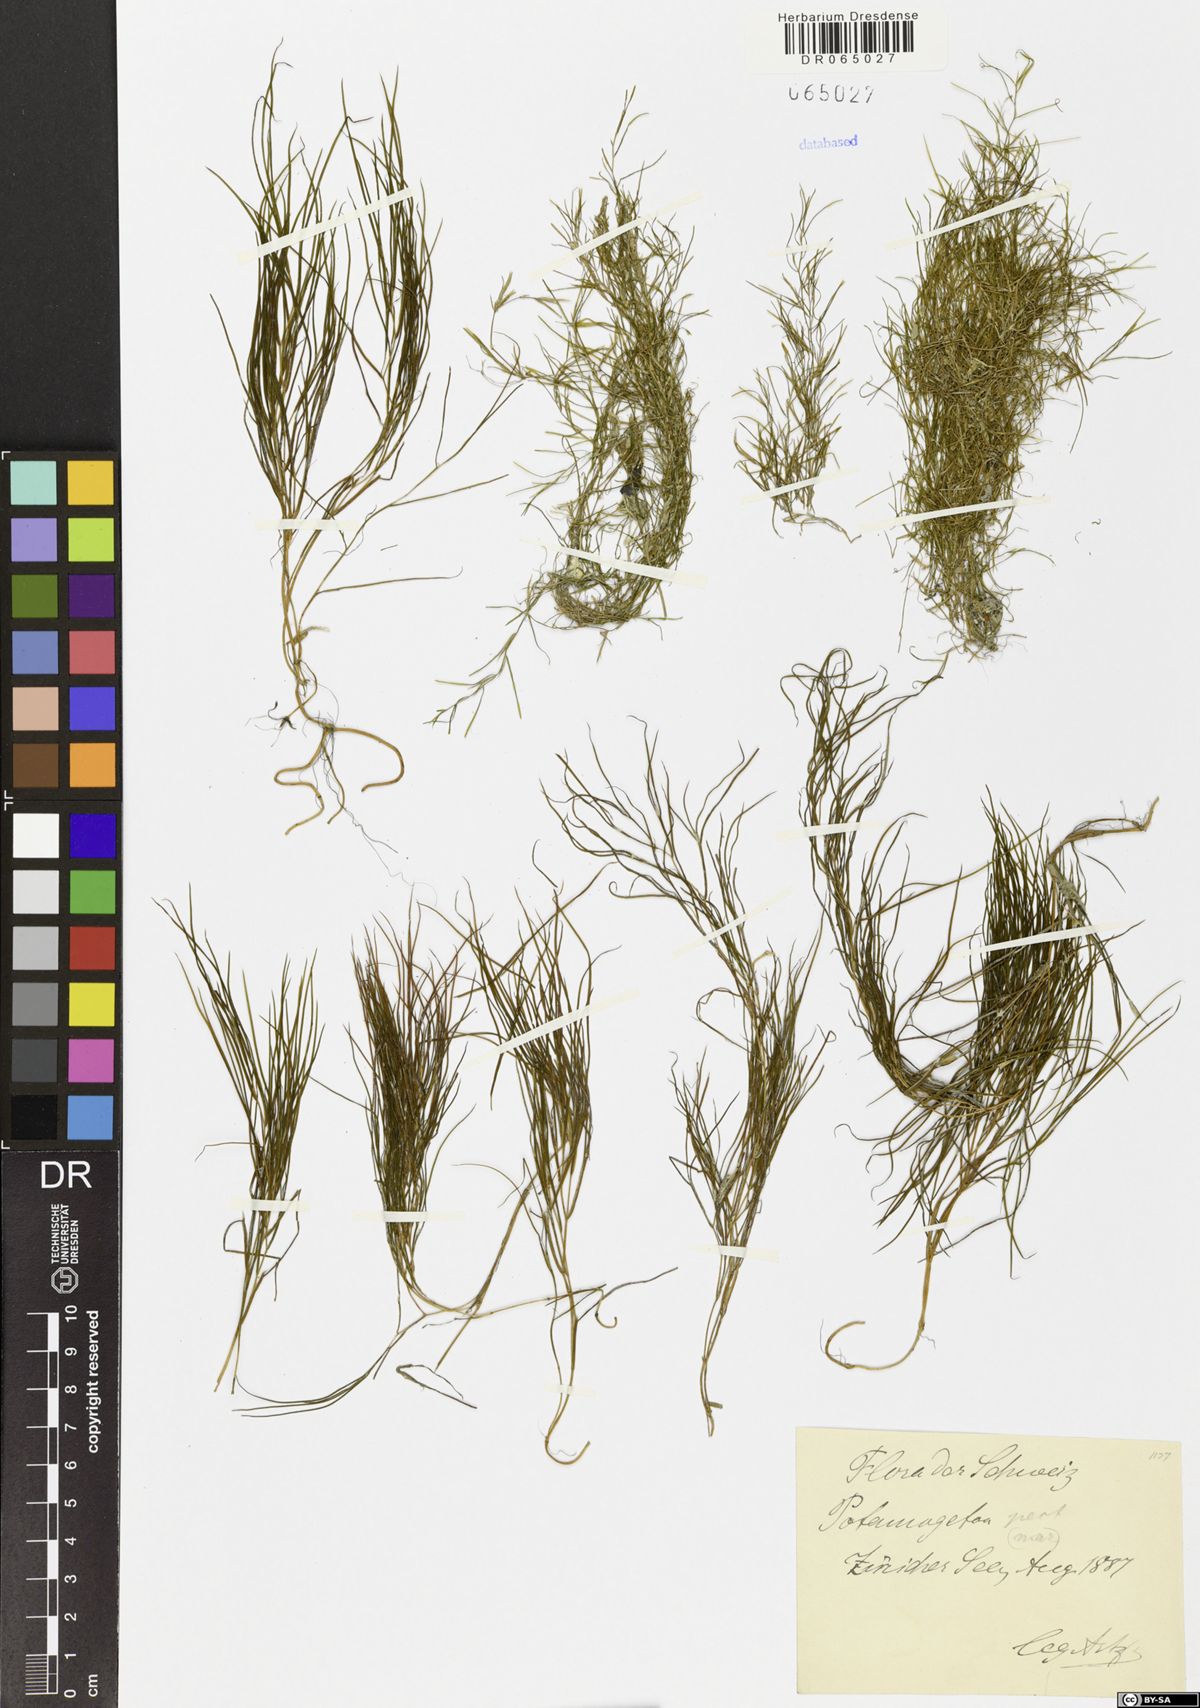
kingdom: Plantae
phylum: Tracheophyta
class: Liliopsida
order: Alismatales
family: Potamogetonaceae
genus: Stuckenia
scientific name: Stuckenia pectinata
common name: Sago pondweed
